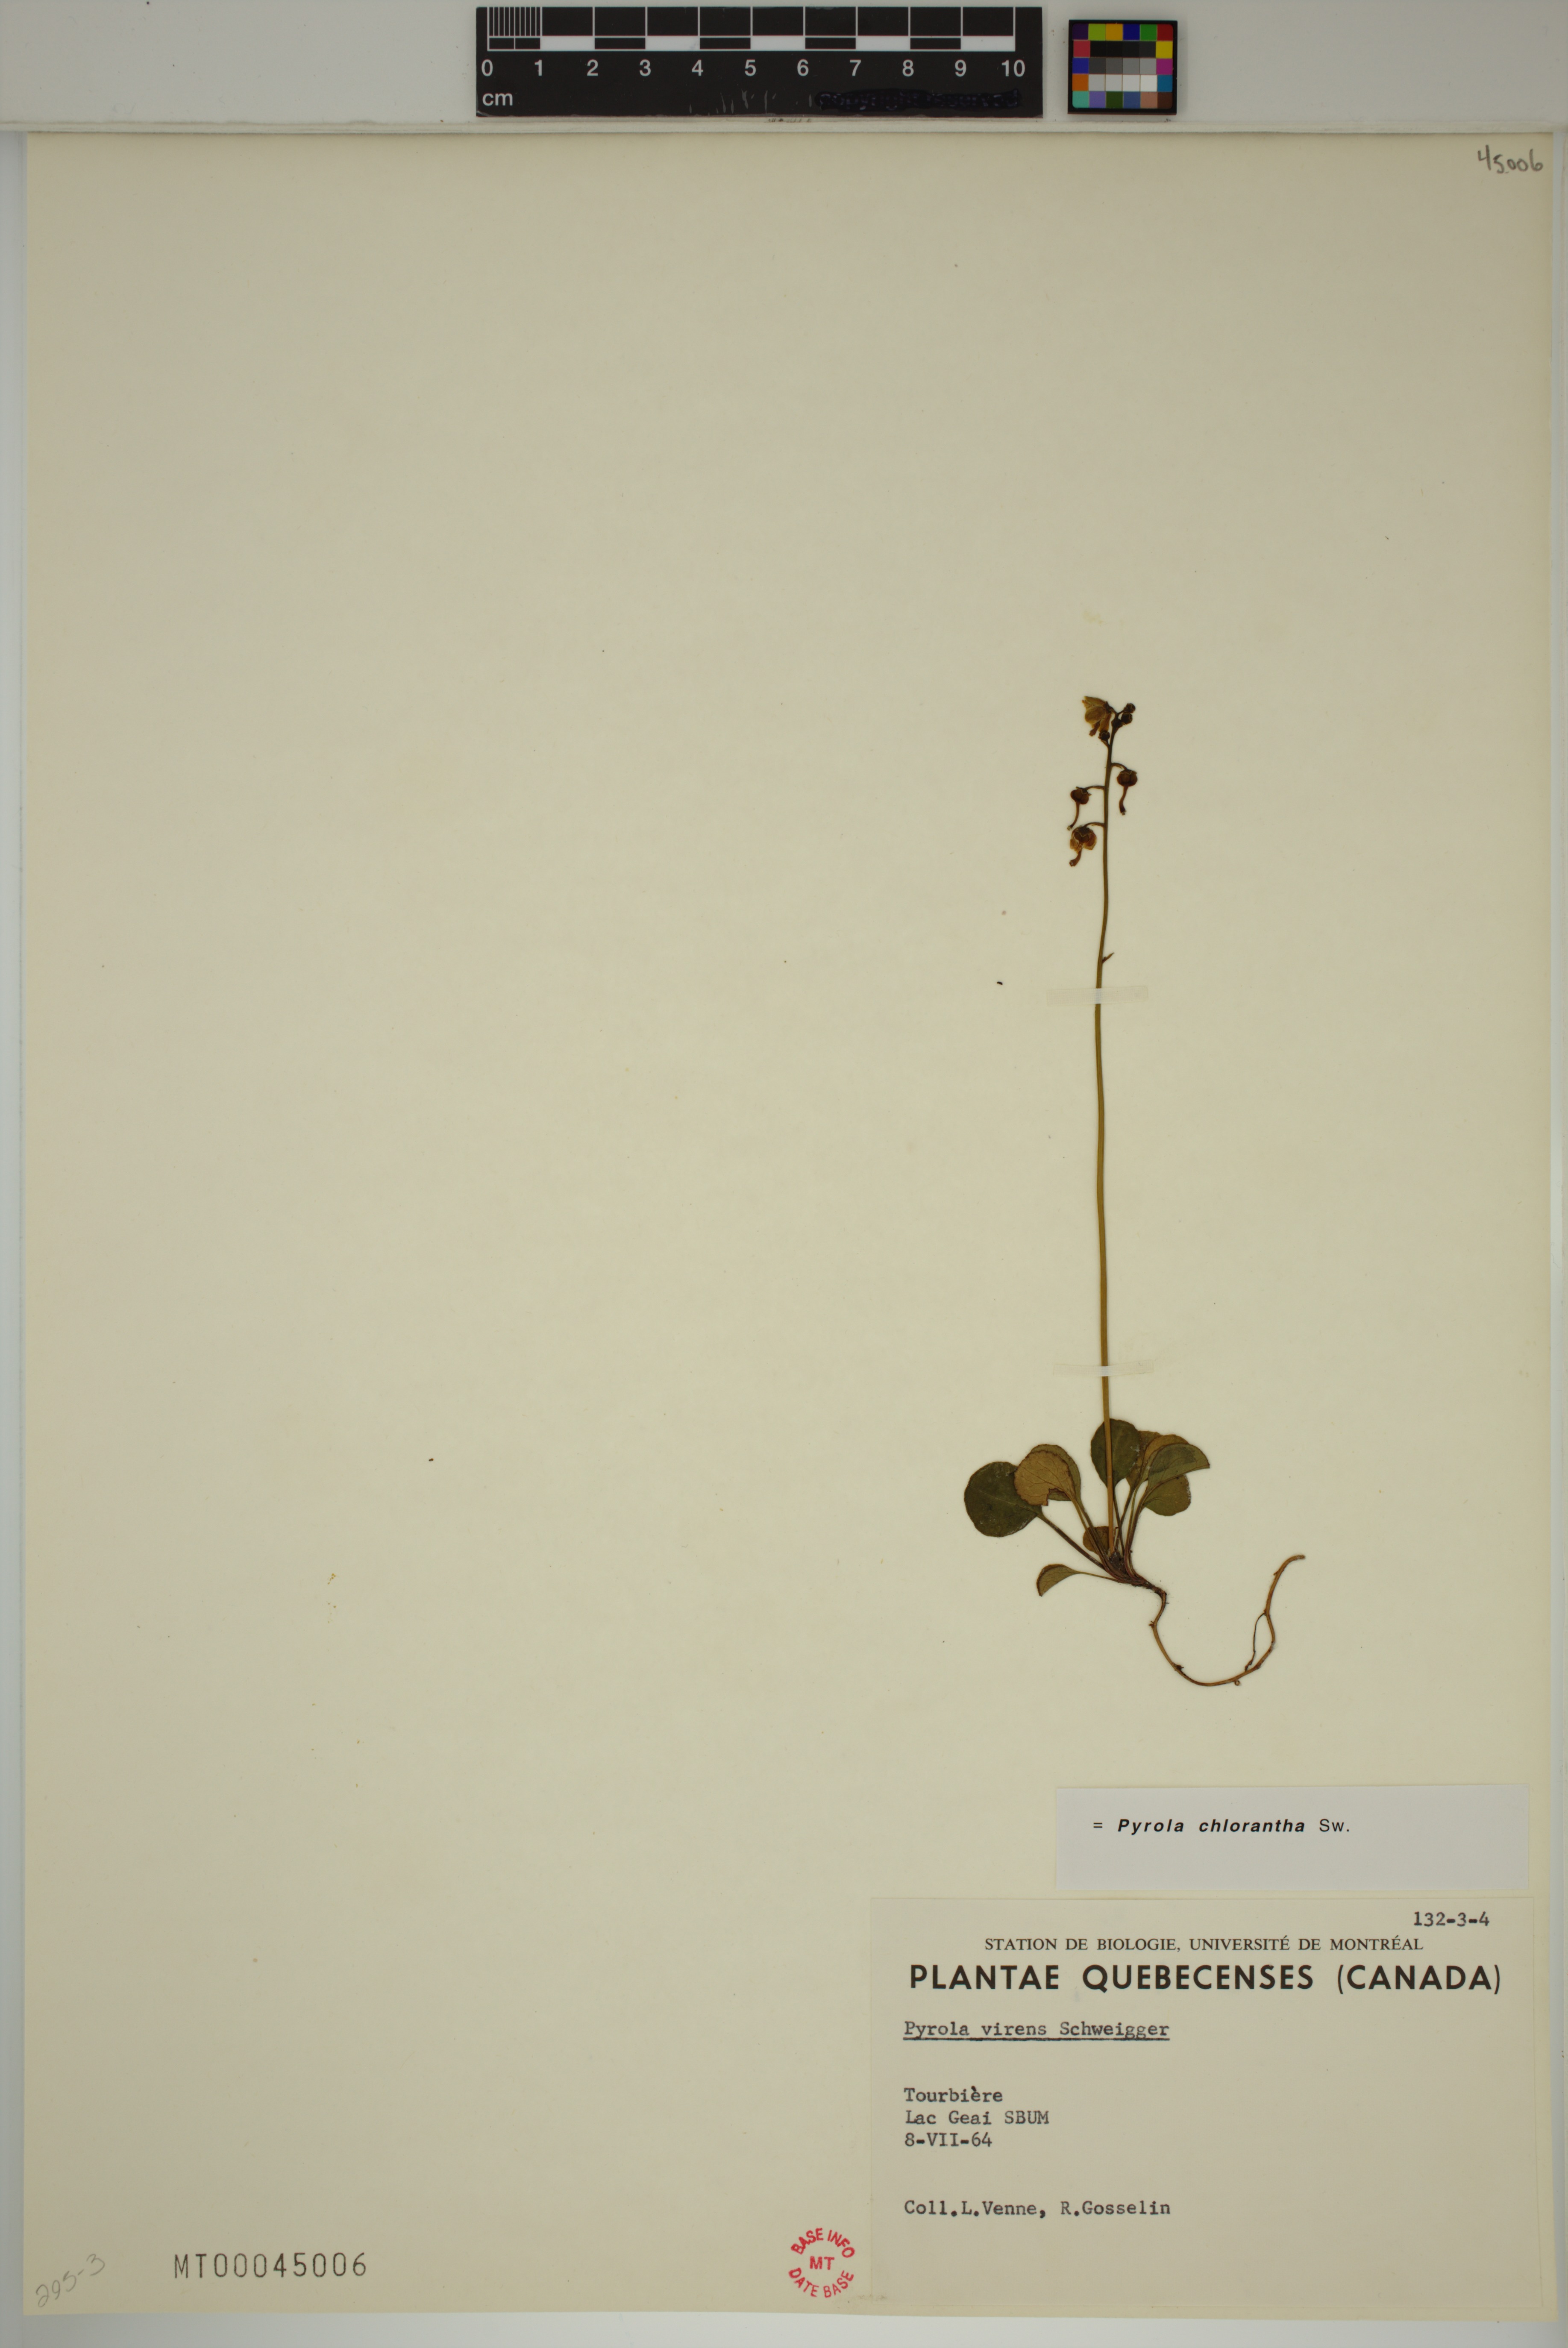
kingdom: Plantae
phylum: Tracheophyta
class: Magnoliopsida
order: Ericales
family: Ericaceae
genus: Pyrola
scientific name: Pyrola chlorantha
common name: Green wintergreen
